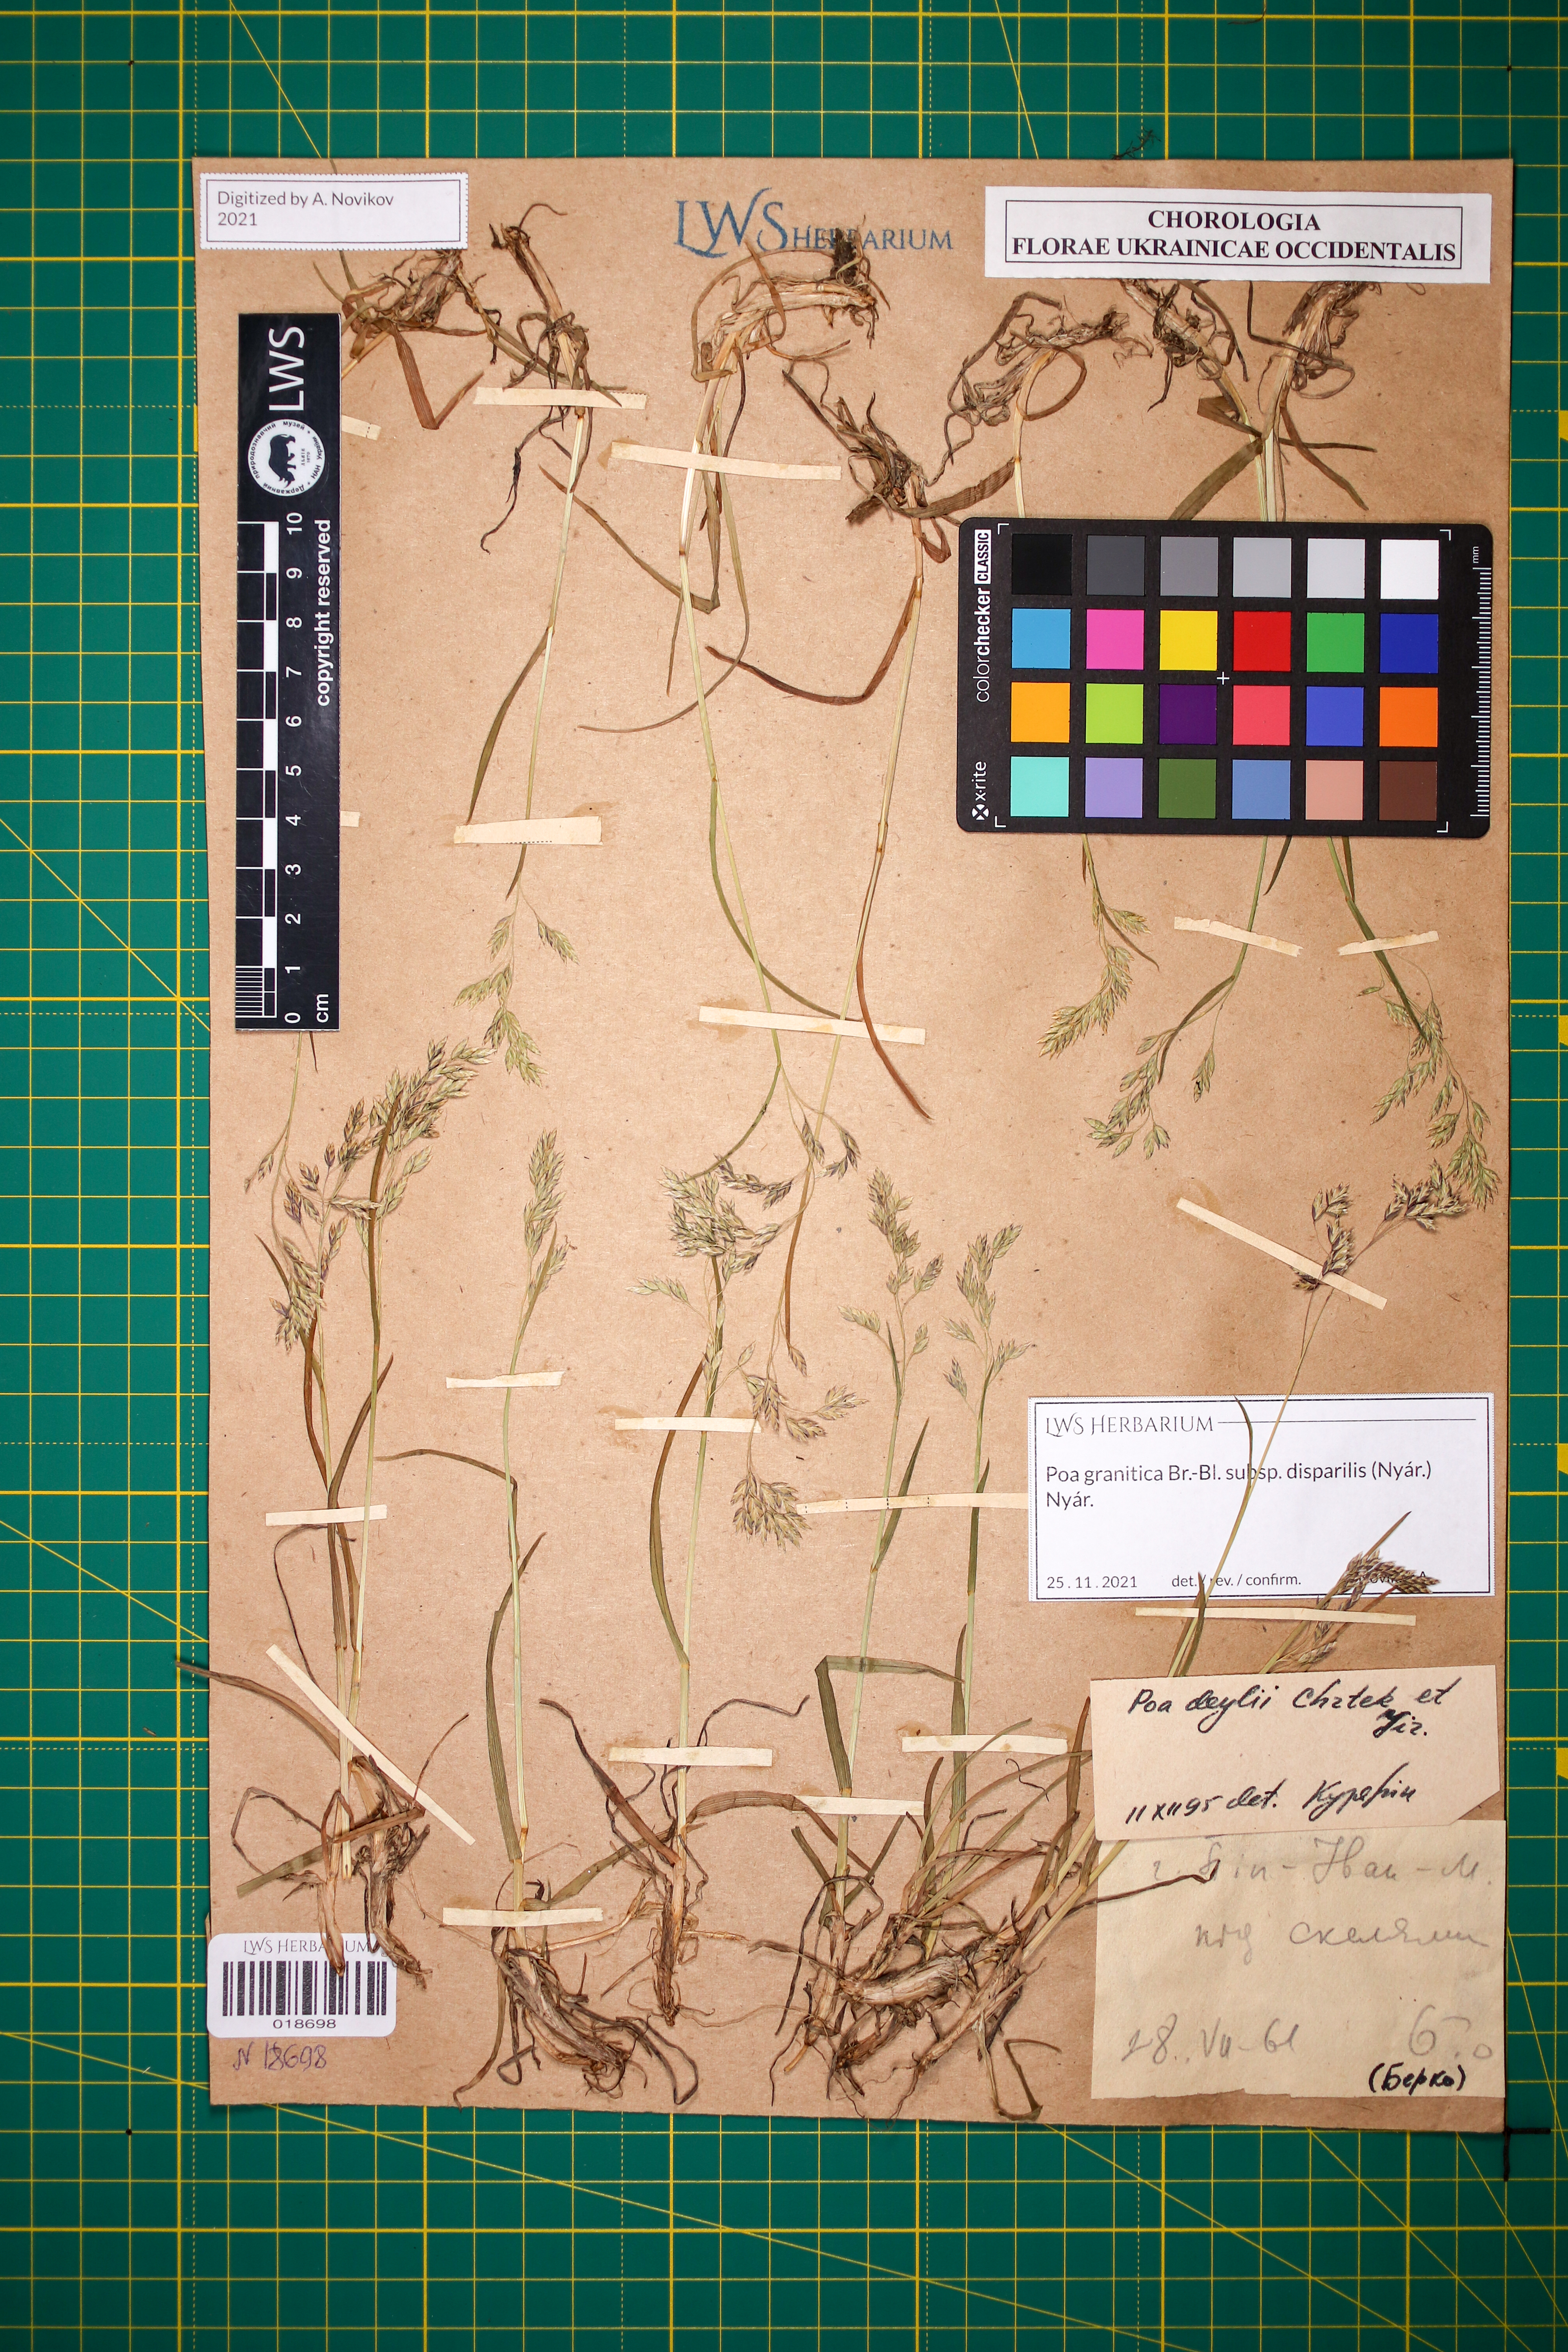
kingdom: Plantae
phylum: Tracheophyta
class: Liliopsida
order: Poales
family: Poaceae
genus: Poa
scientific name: Poa granitica
